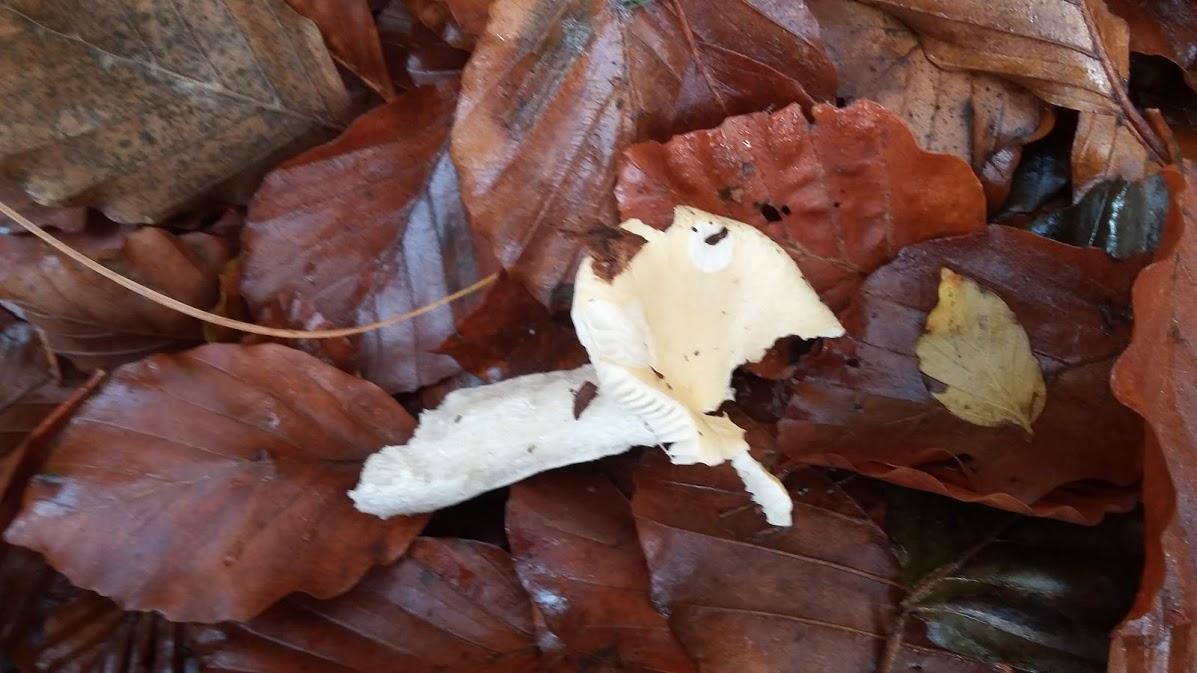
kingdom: Fungi
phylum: Basidiomycota
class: Agaricomycetes
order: Russulales
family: Russulaceae
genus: Russula
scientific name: Russula ochroleuca
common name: okkergul skørhat
